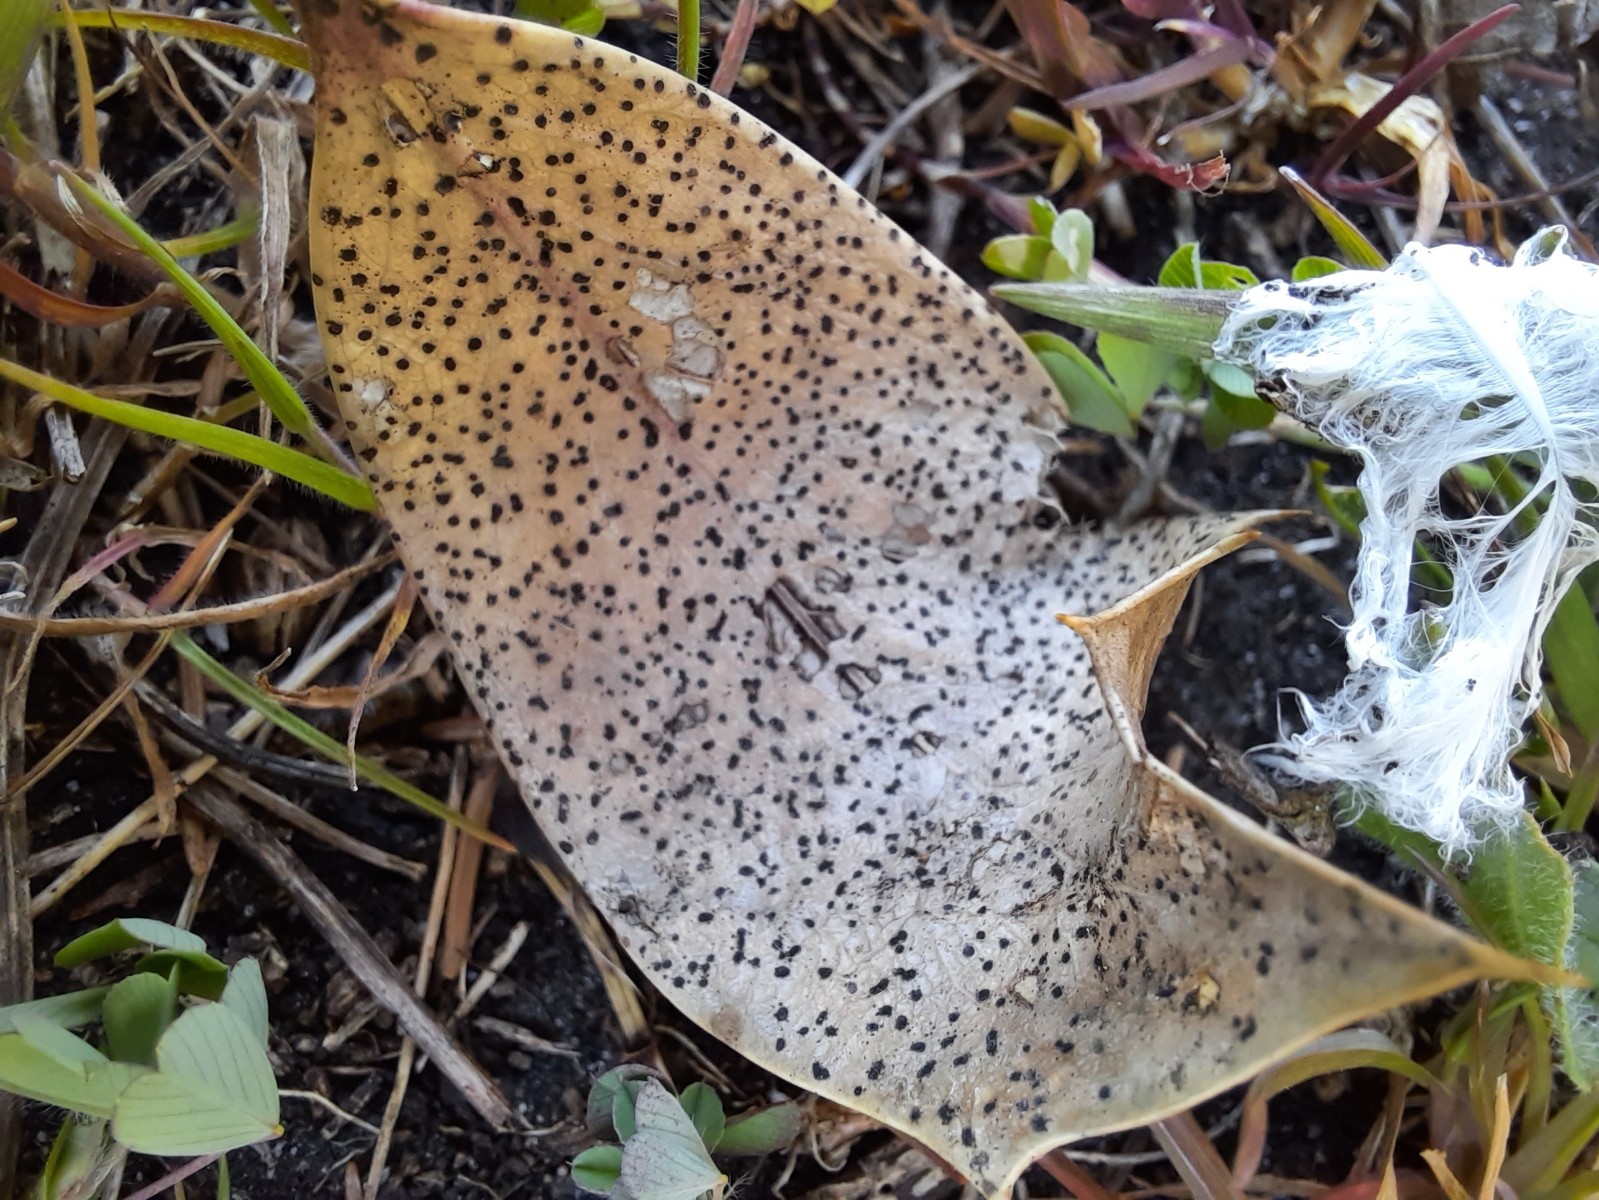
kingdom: Fungi
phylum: Ascomycota
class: Leotiomycetes
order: Helotiales
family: Cenangiaceae
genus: Trochila
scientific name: Trochila ilicina
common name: kristtorn-lågskive
